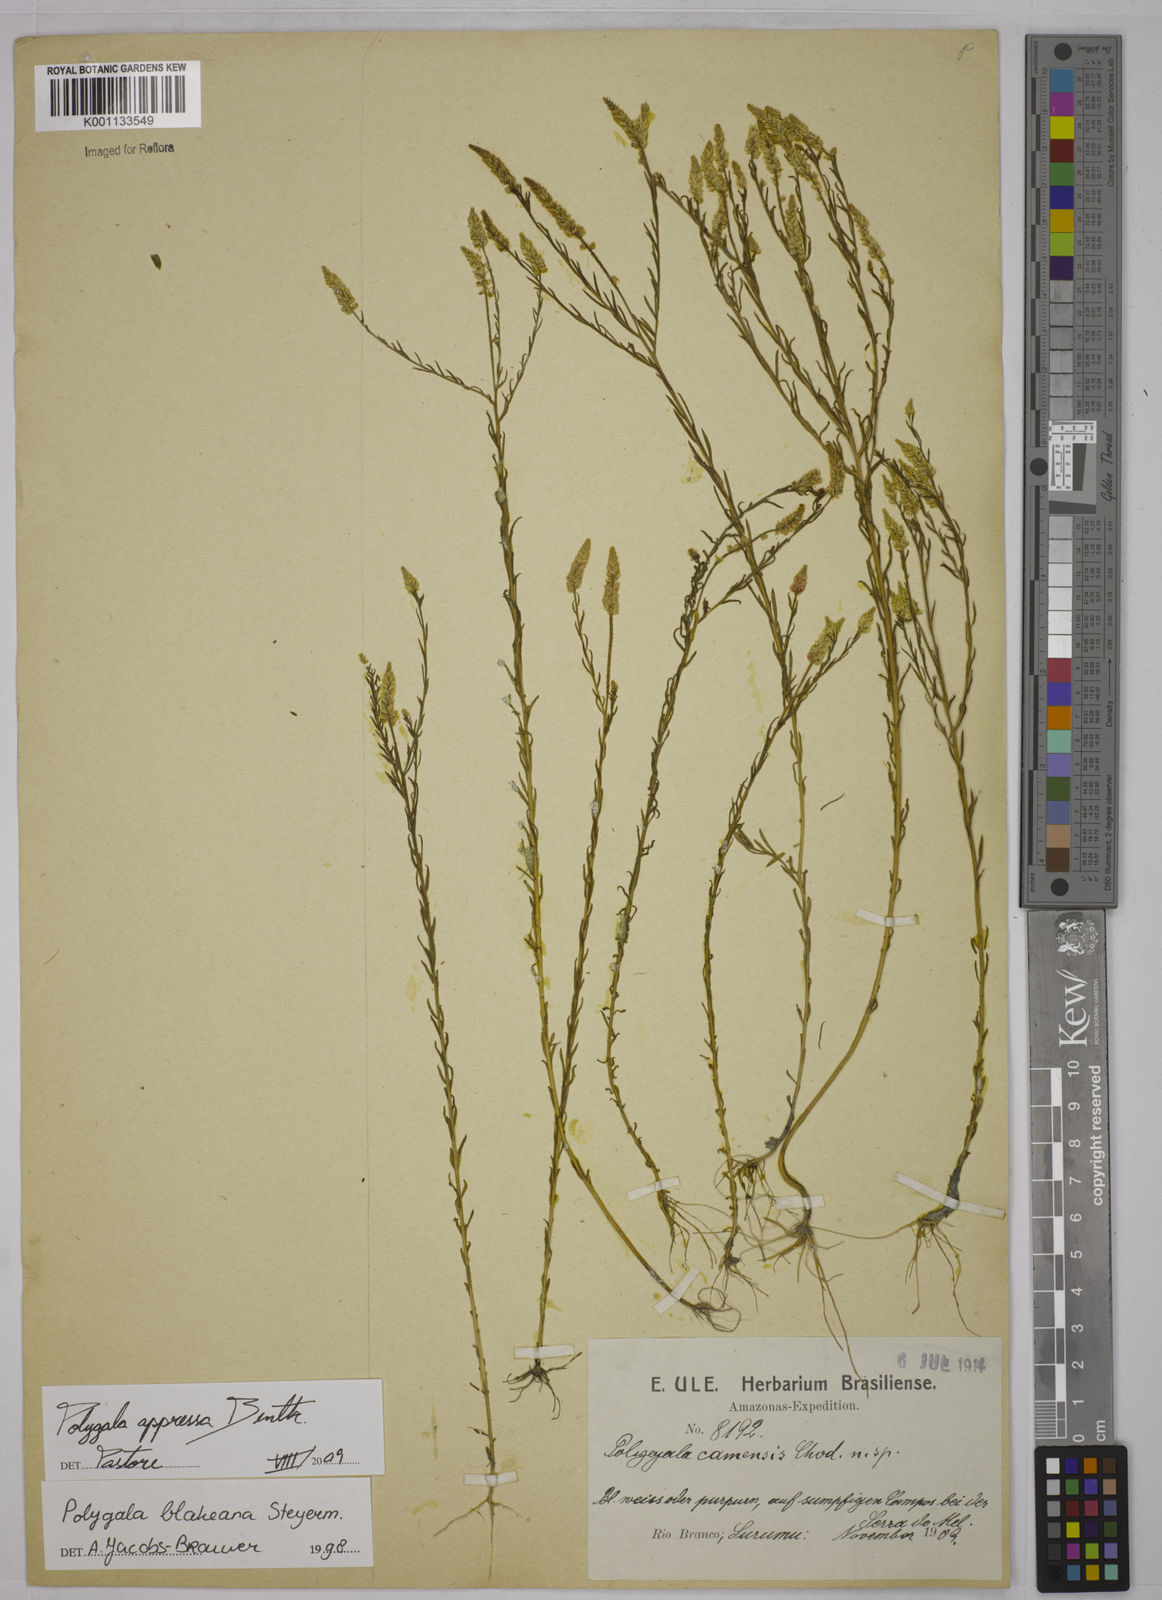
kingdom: Plantae
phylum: Tracheophyta
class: Magnoliopsida
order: Fabales
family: Polygalaceae
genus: Polygala
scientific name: Polygala appressa
